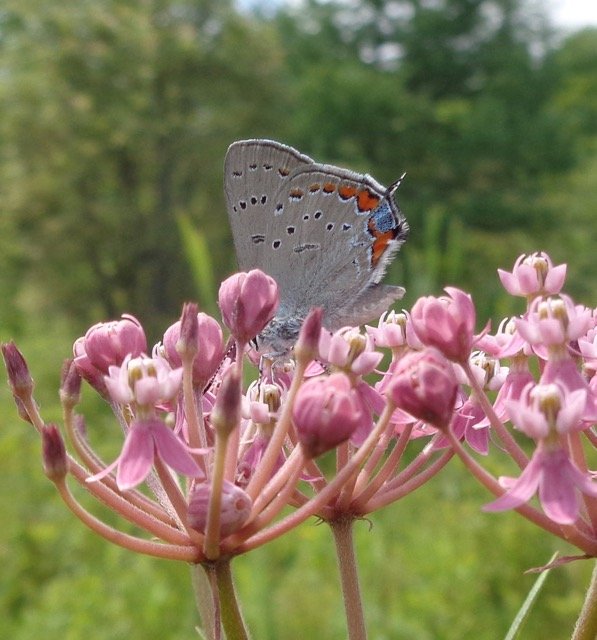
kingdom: Animalia
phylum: Arthropoda
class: Insecta
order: Lepidoptera
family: Lycaenidae
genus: Strymon
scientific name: Strymon acadica
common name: Acadian Hairstreak
